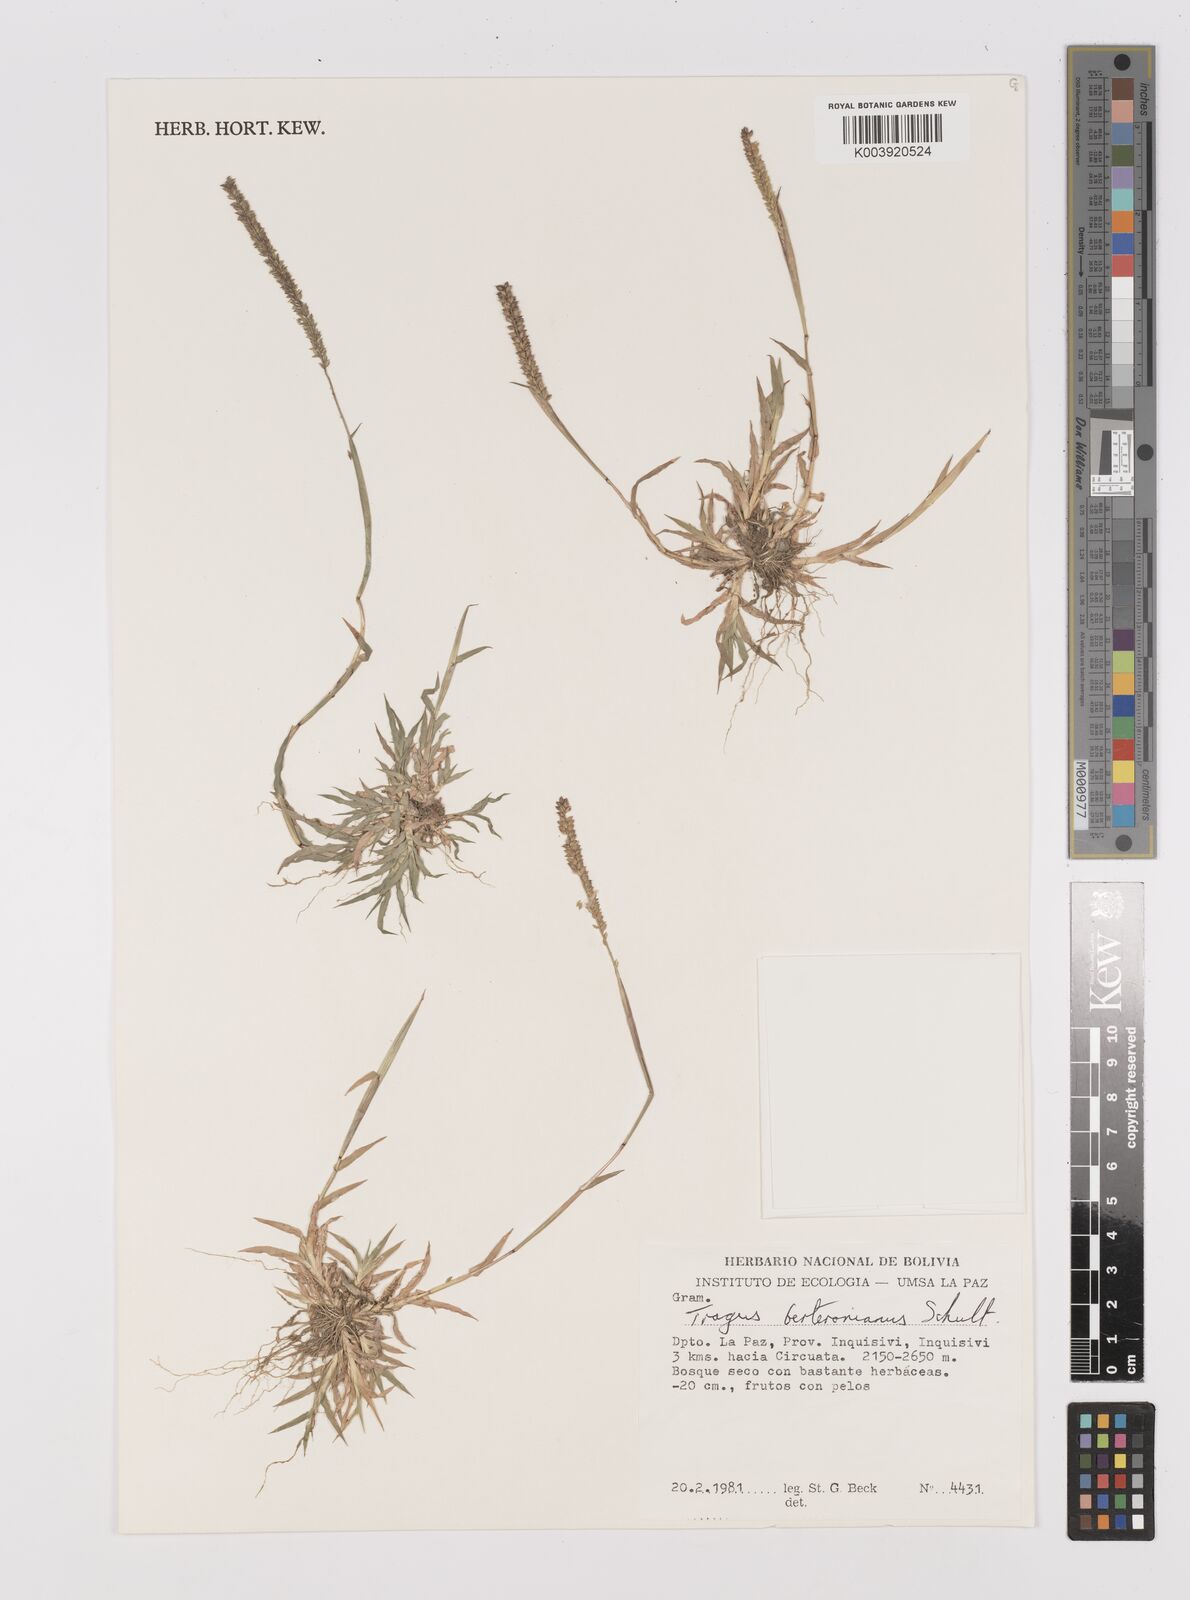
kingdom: Plantae
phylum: Tracheophyta
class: Liliopsida
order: Poales
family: Poaceae
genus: Tragus
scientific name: Tragus berteronianus
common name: African bur-grass
